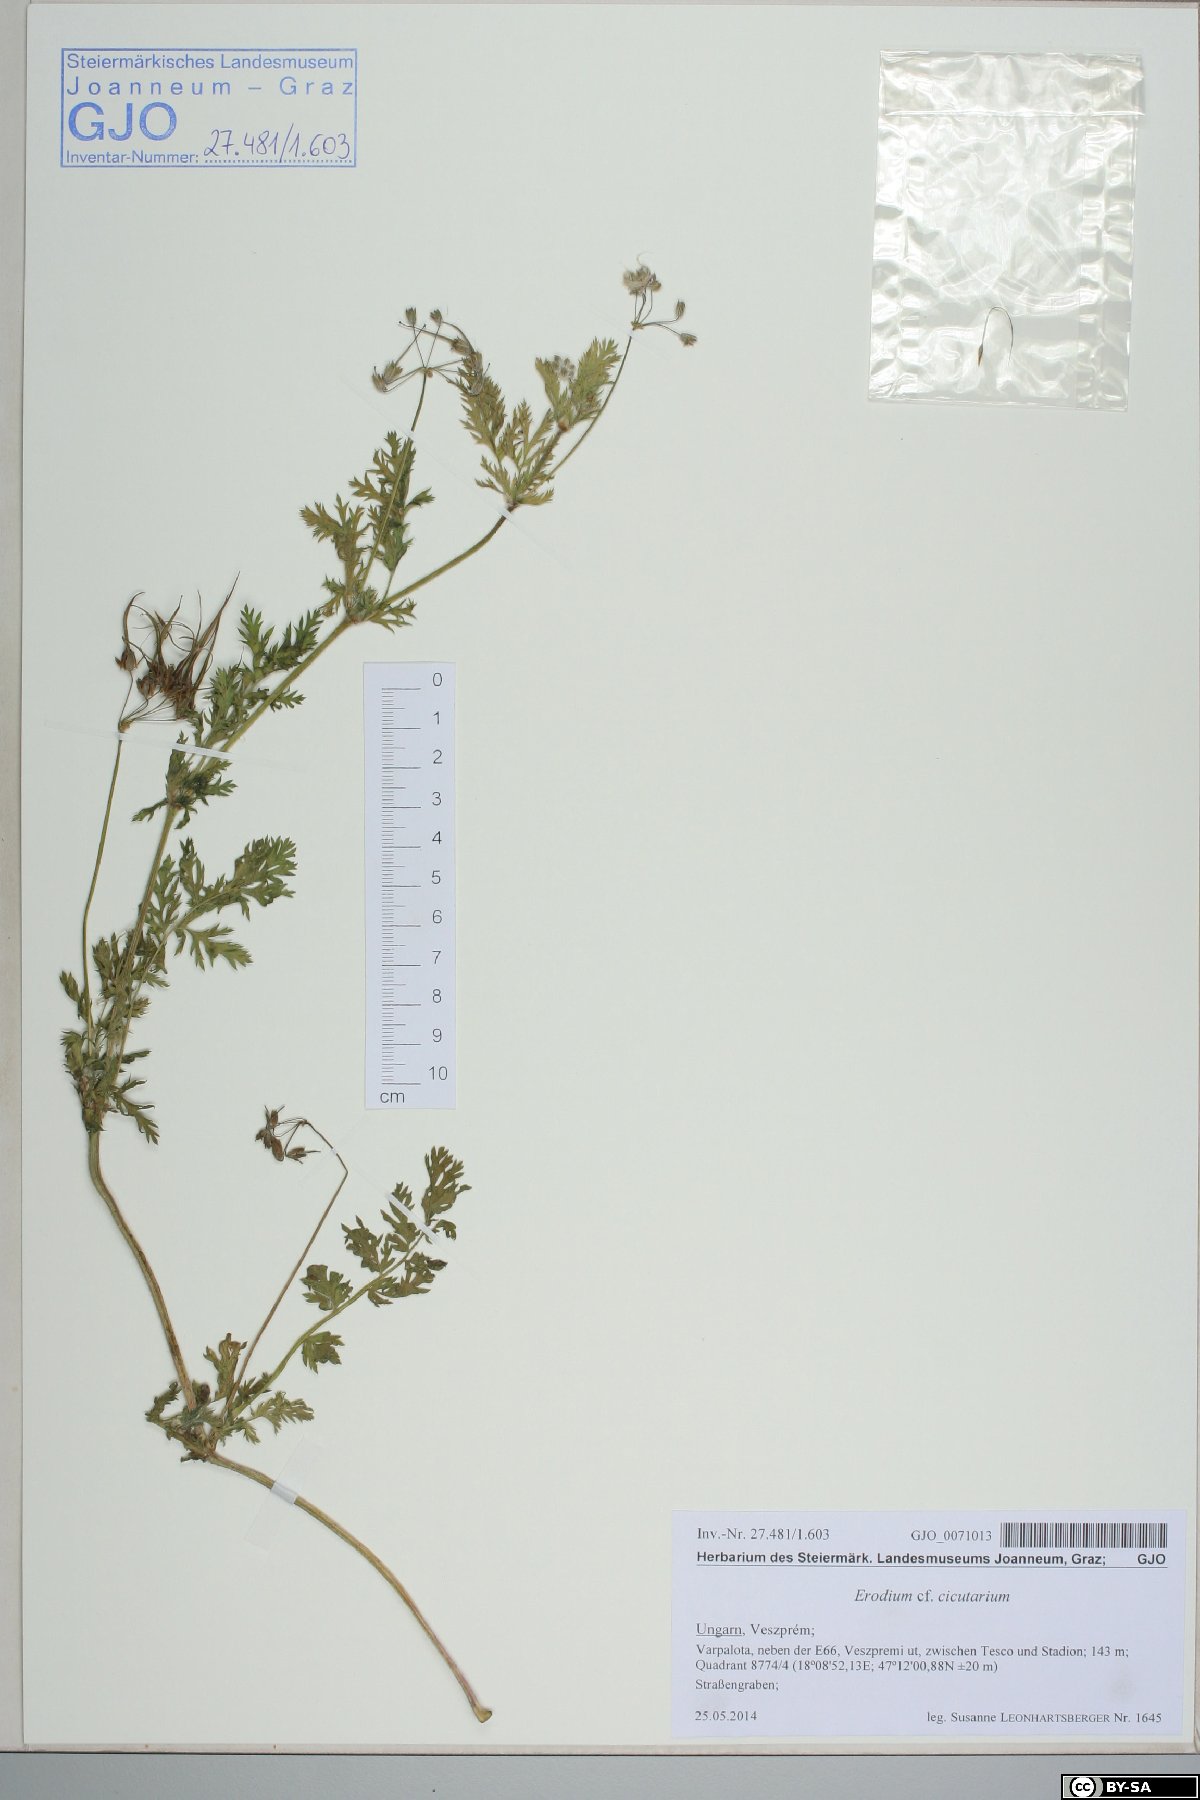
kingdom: Plantae
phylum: Tracheophyta
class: Magnoliopsida
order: Geraniales
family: Geraniaceae
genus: Erodium
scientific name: Erodium cicutarium
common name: Common stork's-bill
